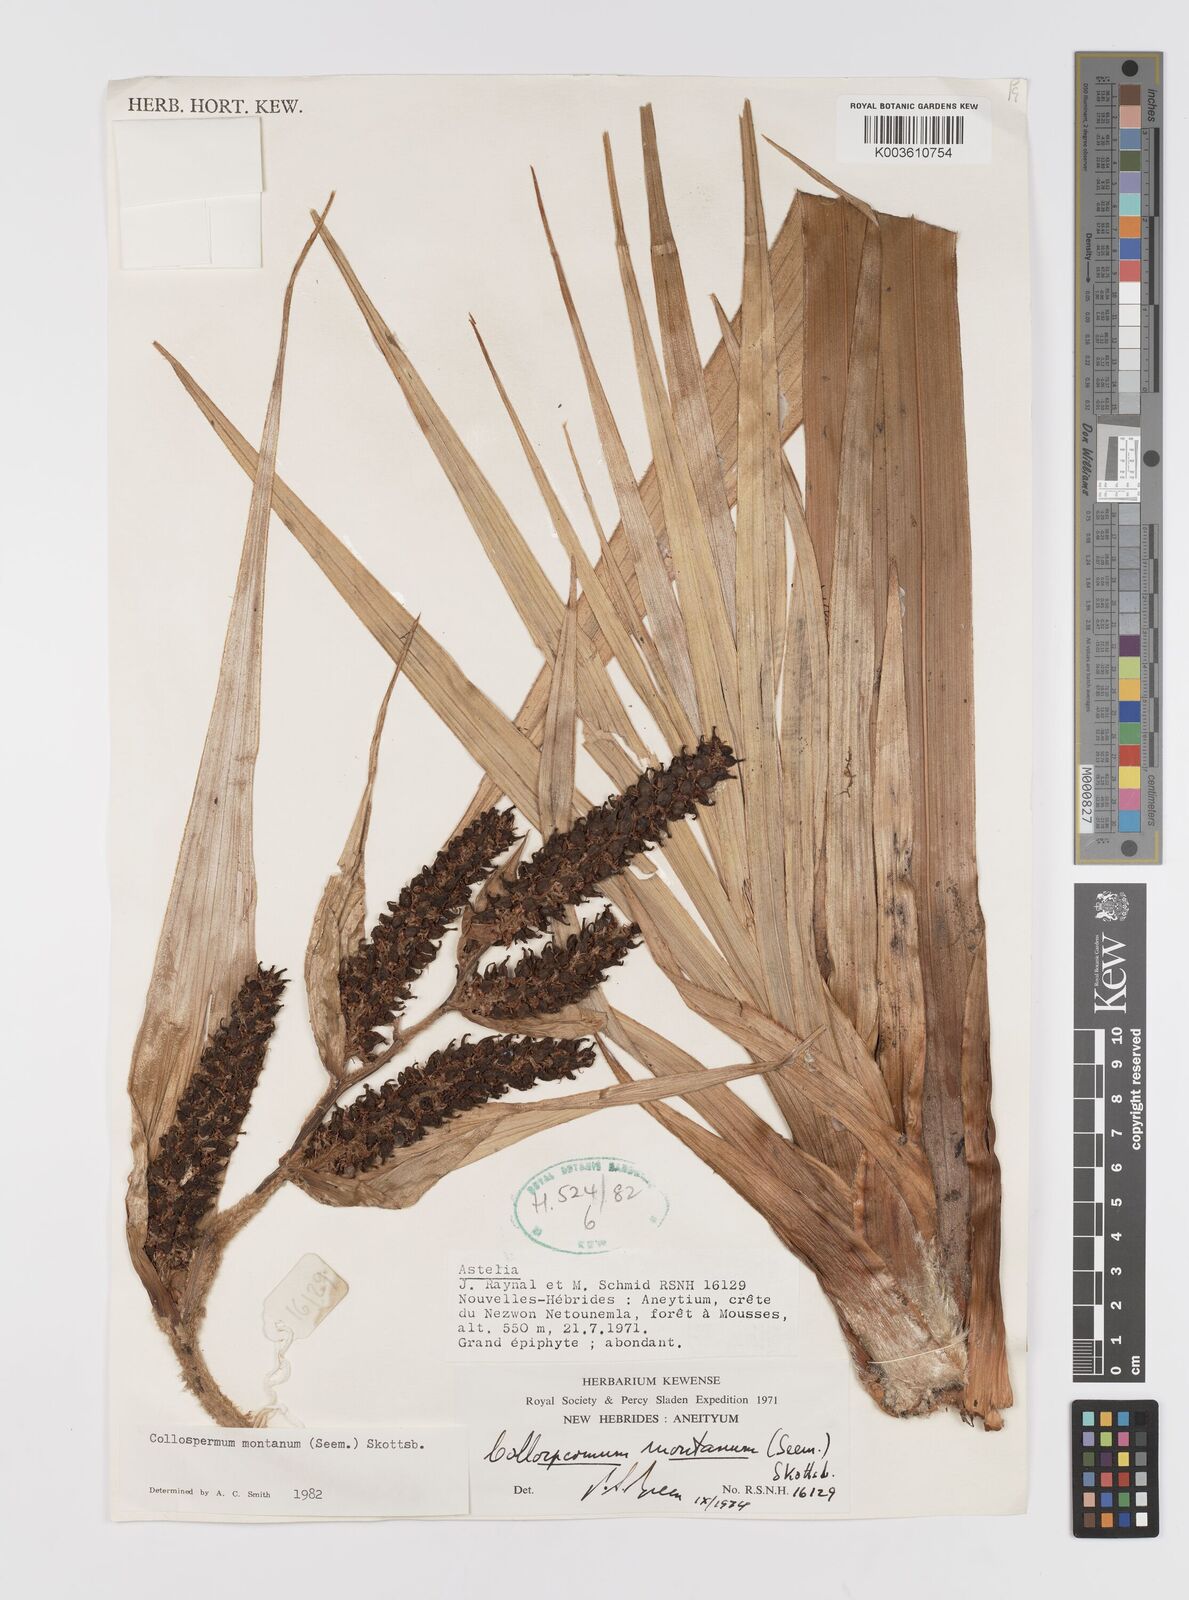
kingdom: Plantae
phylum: Tracheophyta
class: Liliopsida
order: Asparagales
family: Asteliaceae
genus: Astelia
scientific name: Astelia montana
